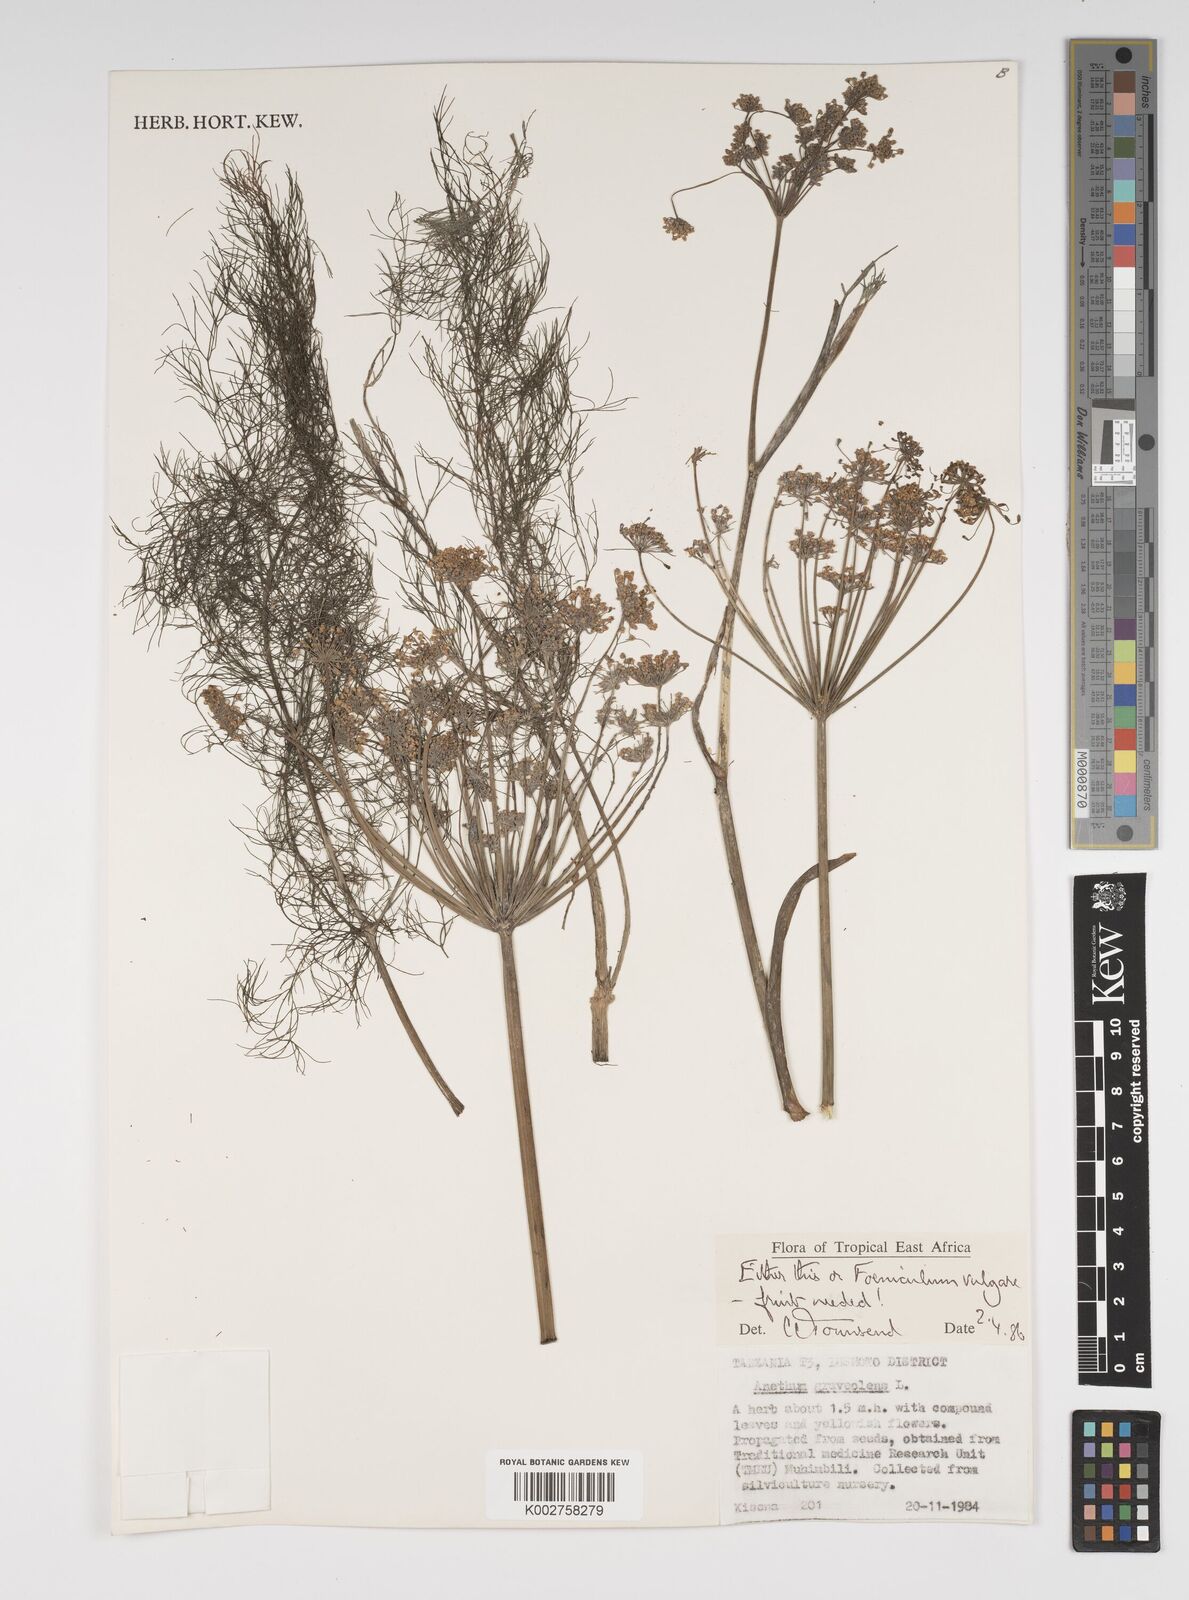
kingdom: Plantae
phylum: Tracheophyta
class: Magnoliopsida
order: Apiales
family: Apiaceae
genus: Foeniculum
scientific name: Foeniculum vulgare
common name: Fennel
